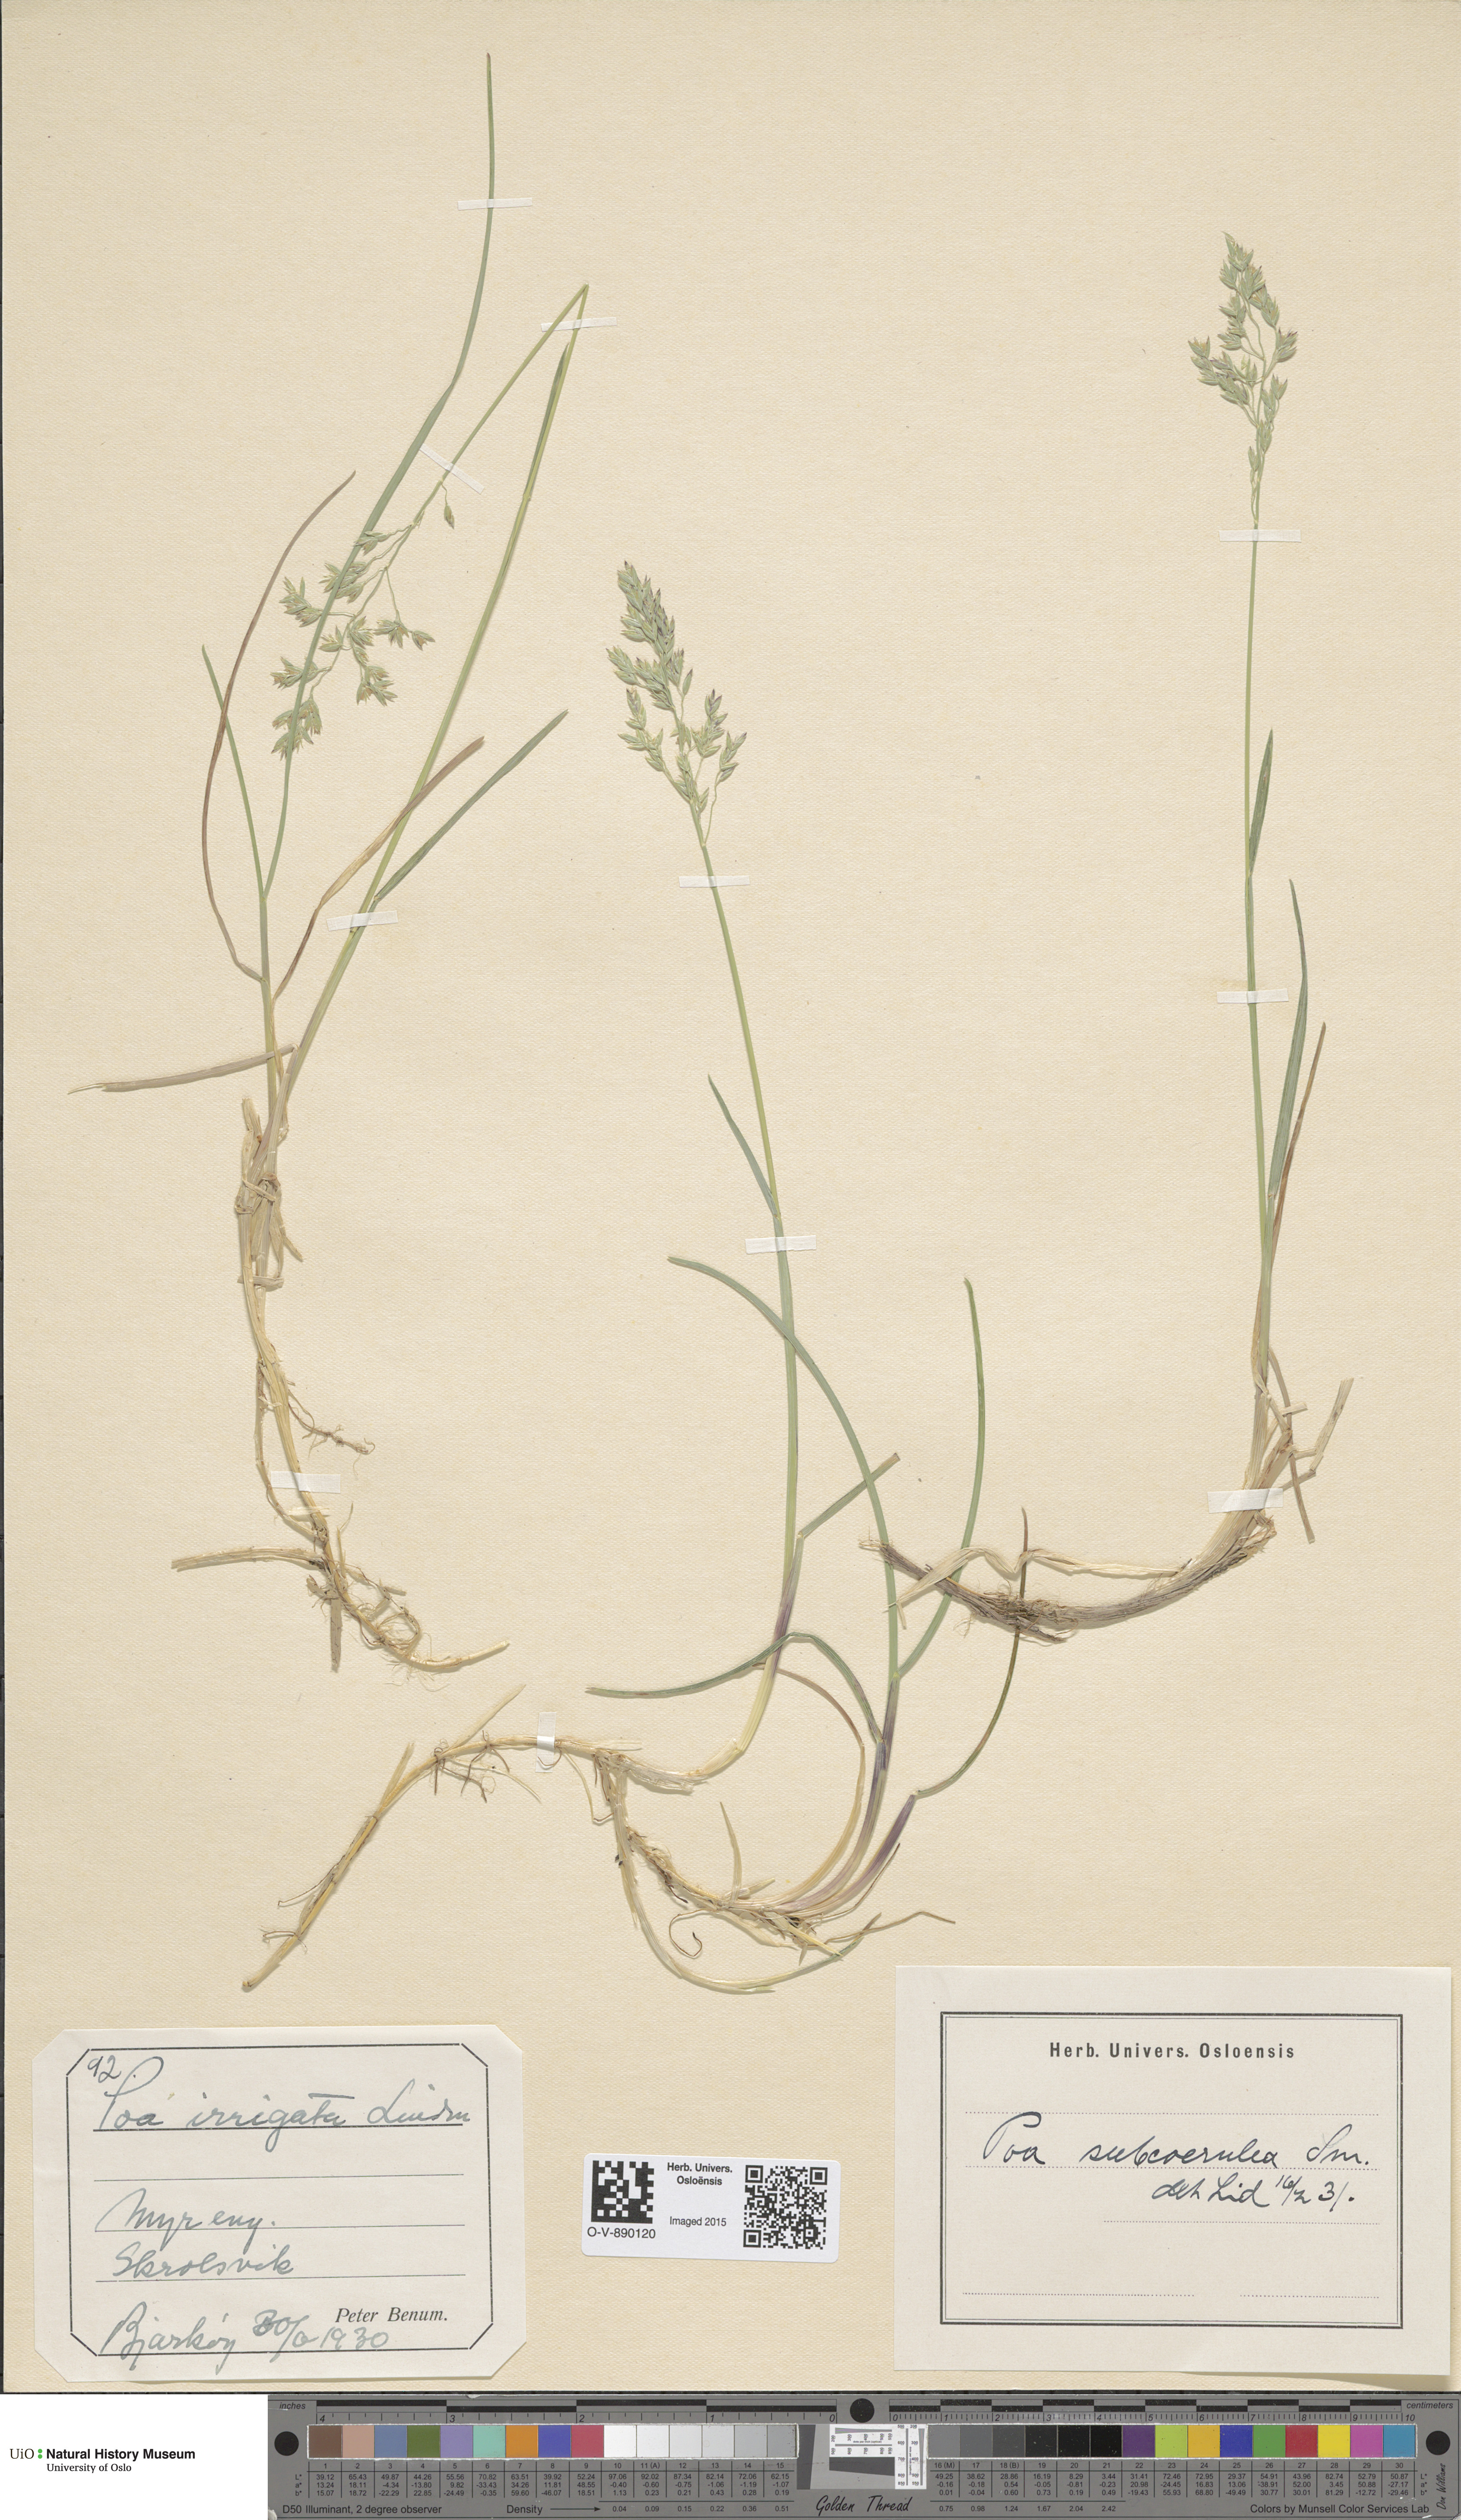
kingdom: Plantae
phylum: Tracheophyta
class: Liliopsida
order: Poales
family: Poaceae
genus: Poa
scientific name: Poa humilis
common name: Spreading meadow-grass
